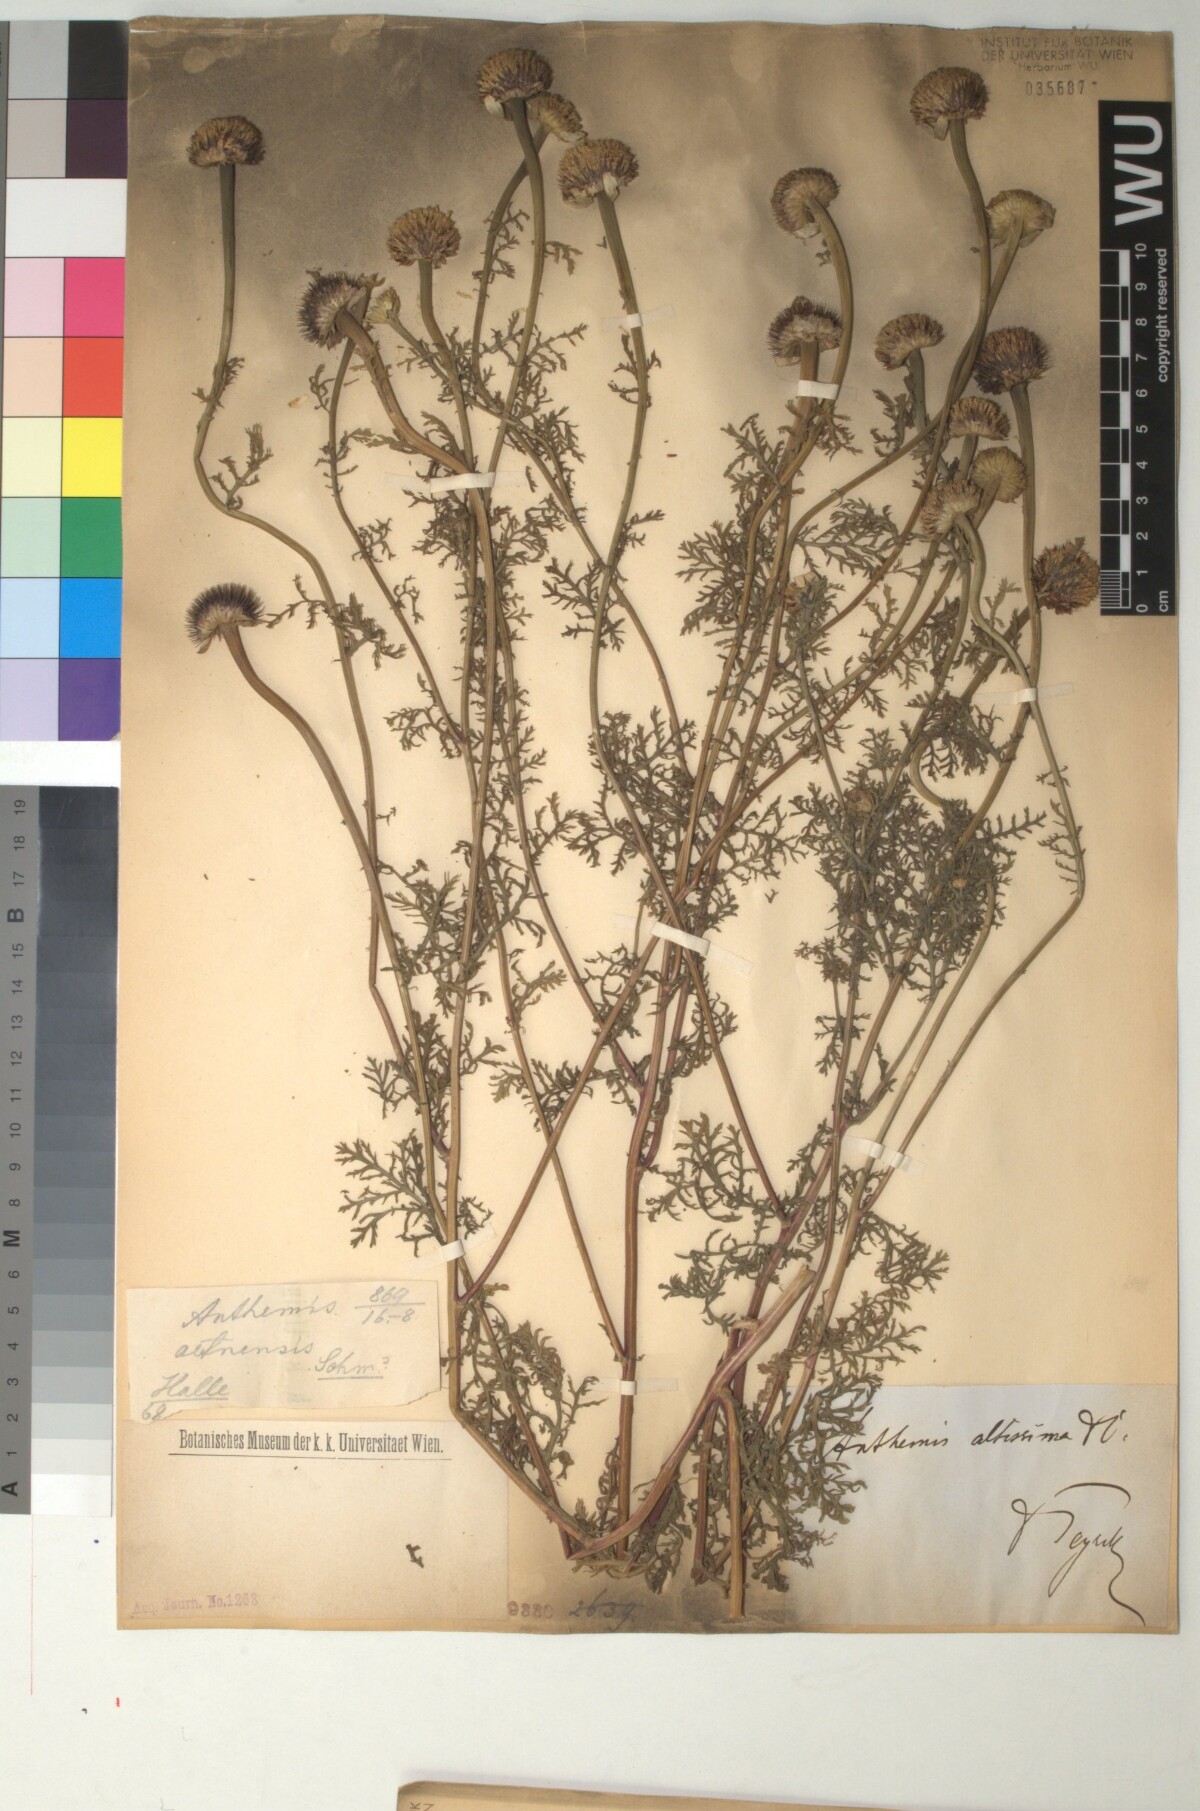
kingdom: Plantae
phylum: Tracheophyta
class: Magnoliopsida
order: Asterales
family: Asteraceae
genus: Cota
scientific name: Cota altissima
